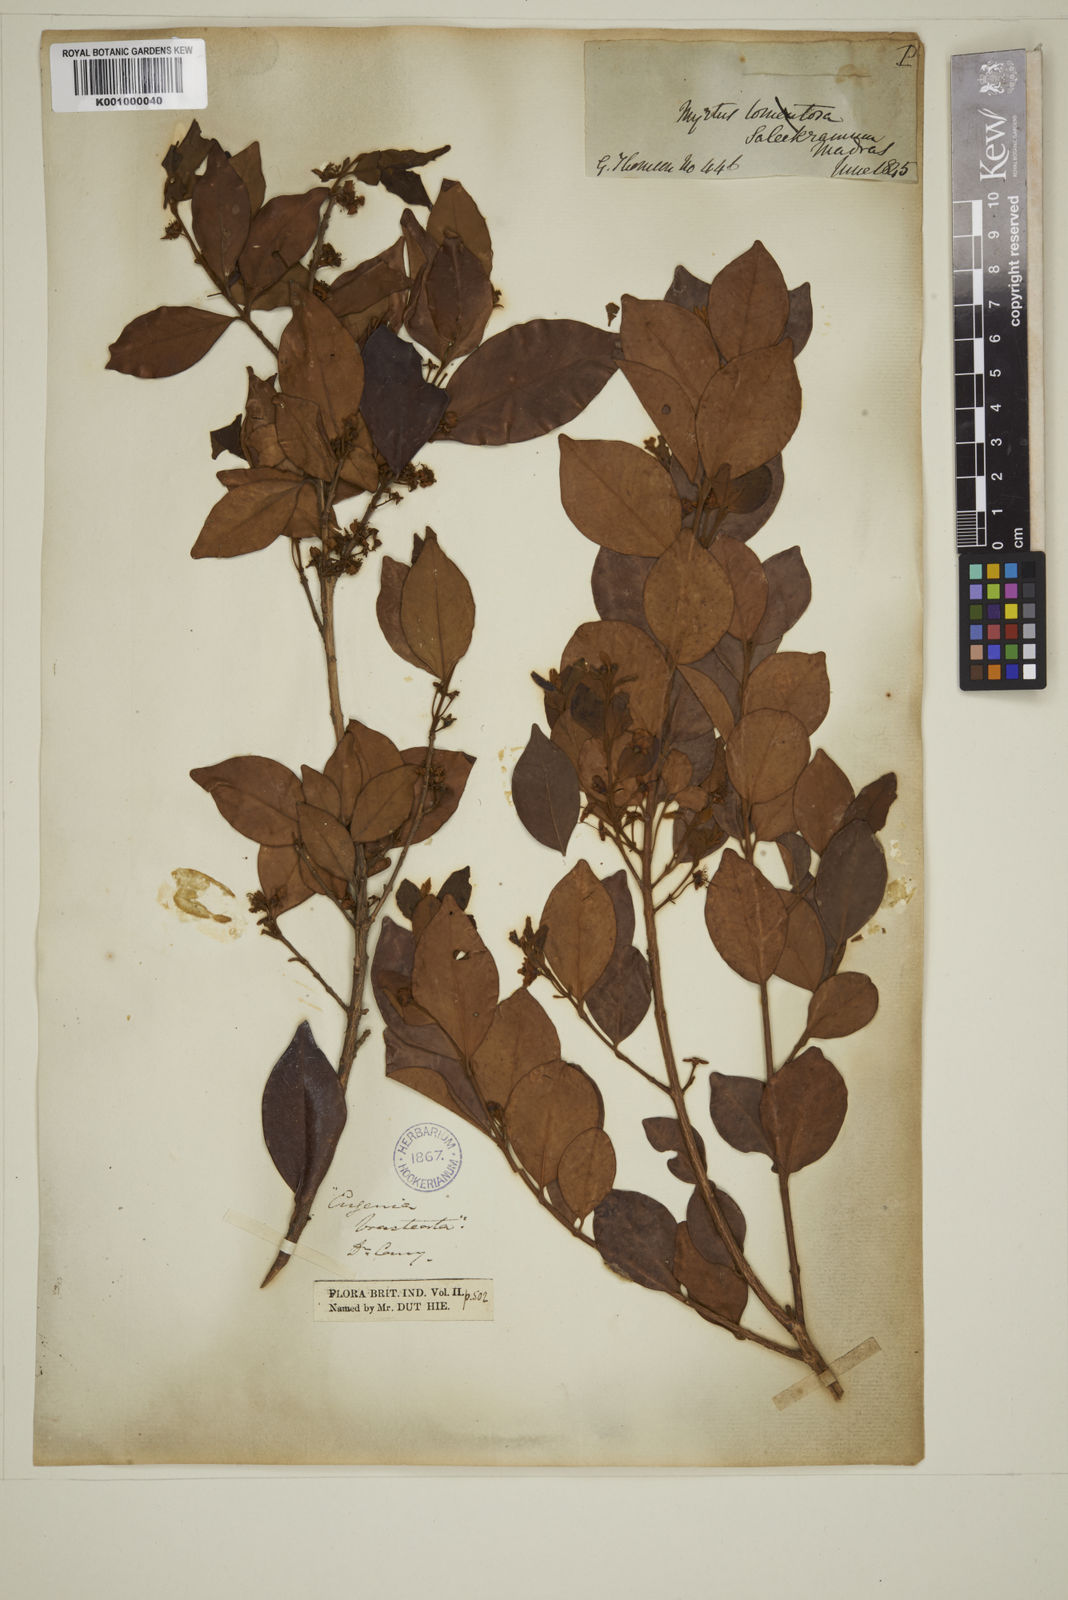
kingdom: Plantae
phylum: Tracheophyta
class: Magnoliopsida
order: Myrtales
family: Myrtaceae
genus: Myrcia
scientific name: Myrcia bracteata
